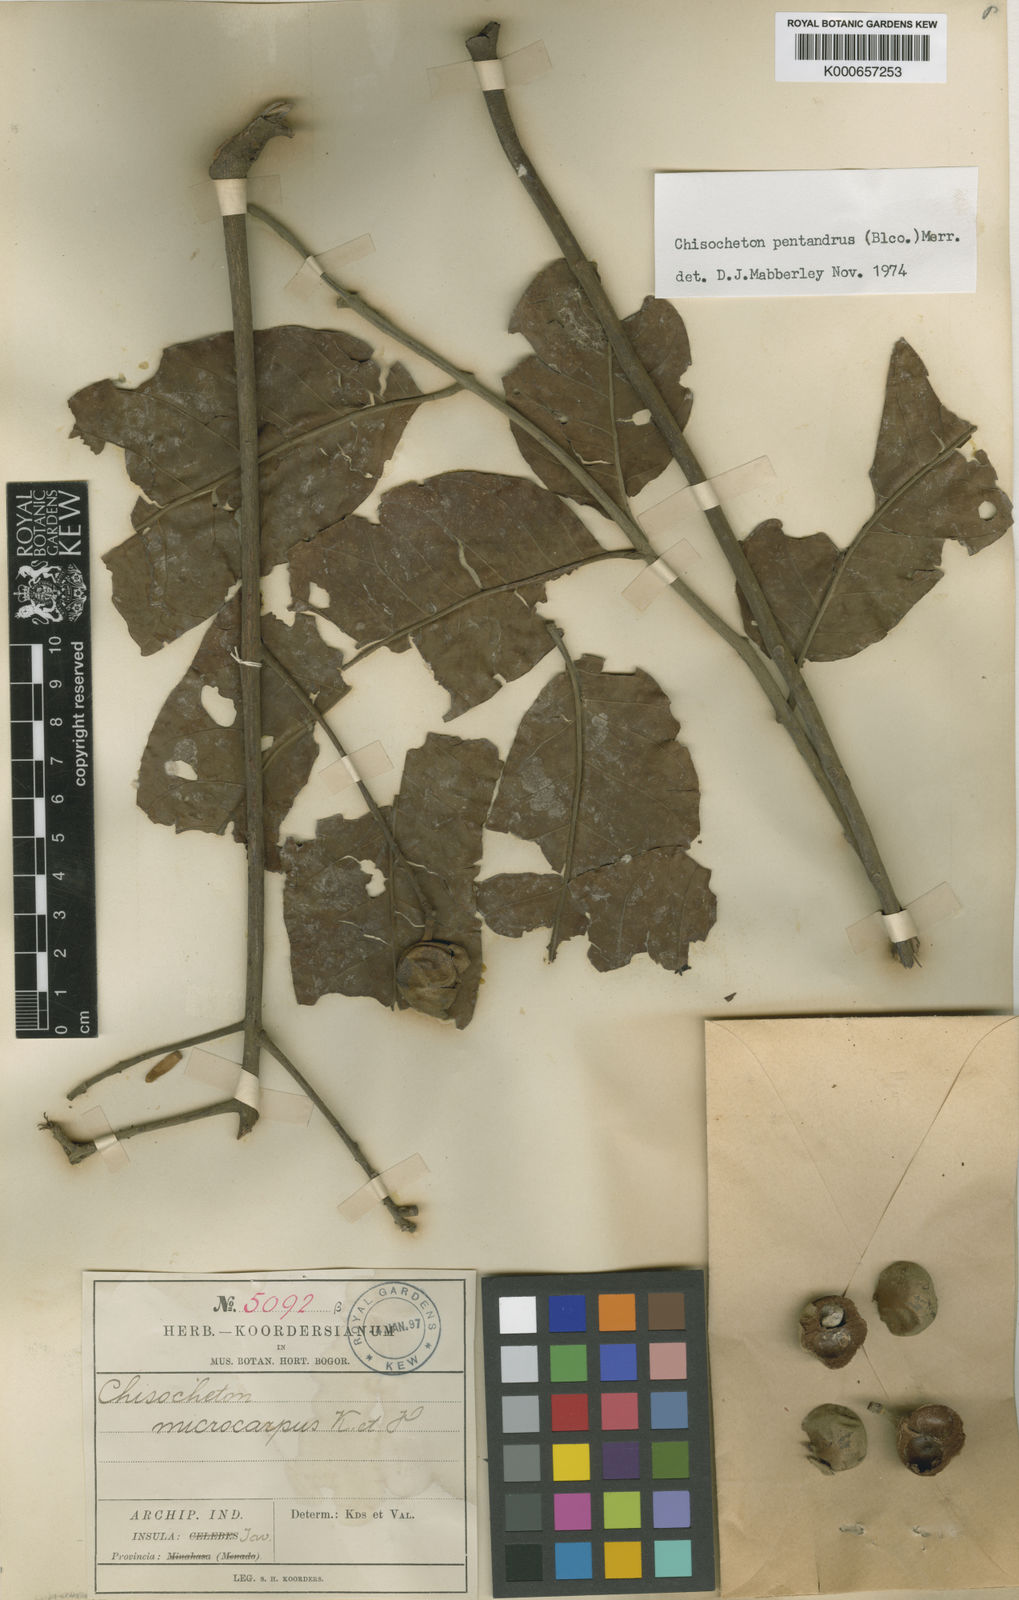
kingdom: Plantae
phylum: Tracheophyta
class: Magnoliopsida
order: Sapindales
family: Meliaceae
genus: Chisocheton
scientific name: Chisocheton pentandrus
